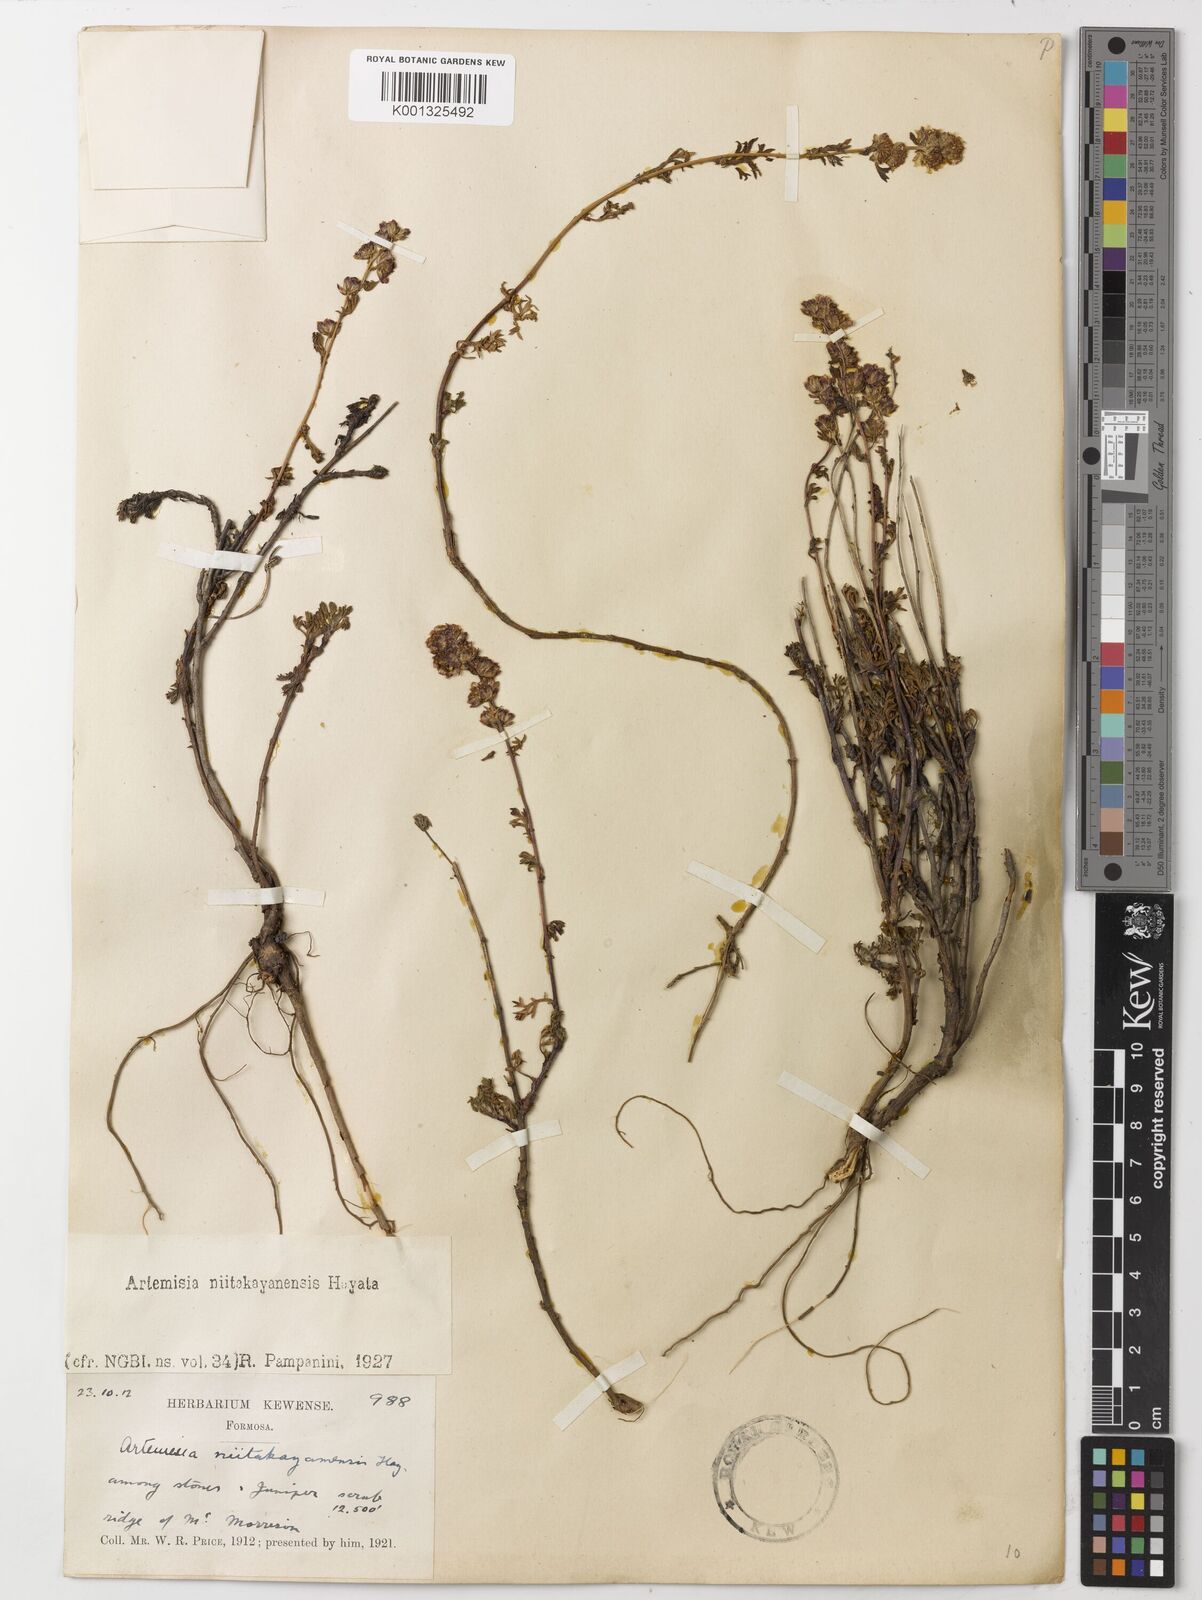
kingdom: Plantae
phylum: Tracheophyta
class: Magnoliopsida
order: Asterales
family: Asteraceae
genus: Artemisia
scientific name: Artemisia niitakayamensis
